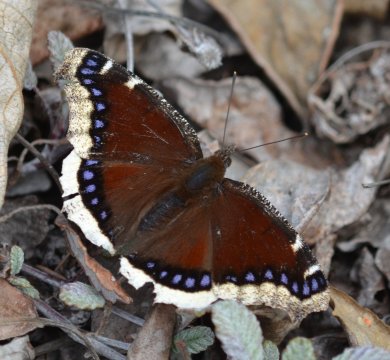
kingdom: Animalia
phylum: Arthropoda
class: Insecta
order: Lepidoptera
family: Nymphalidae
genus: Nymphalis
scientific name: Nymphalis antiopa
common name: Mourning Cloak
